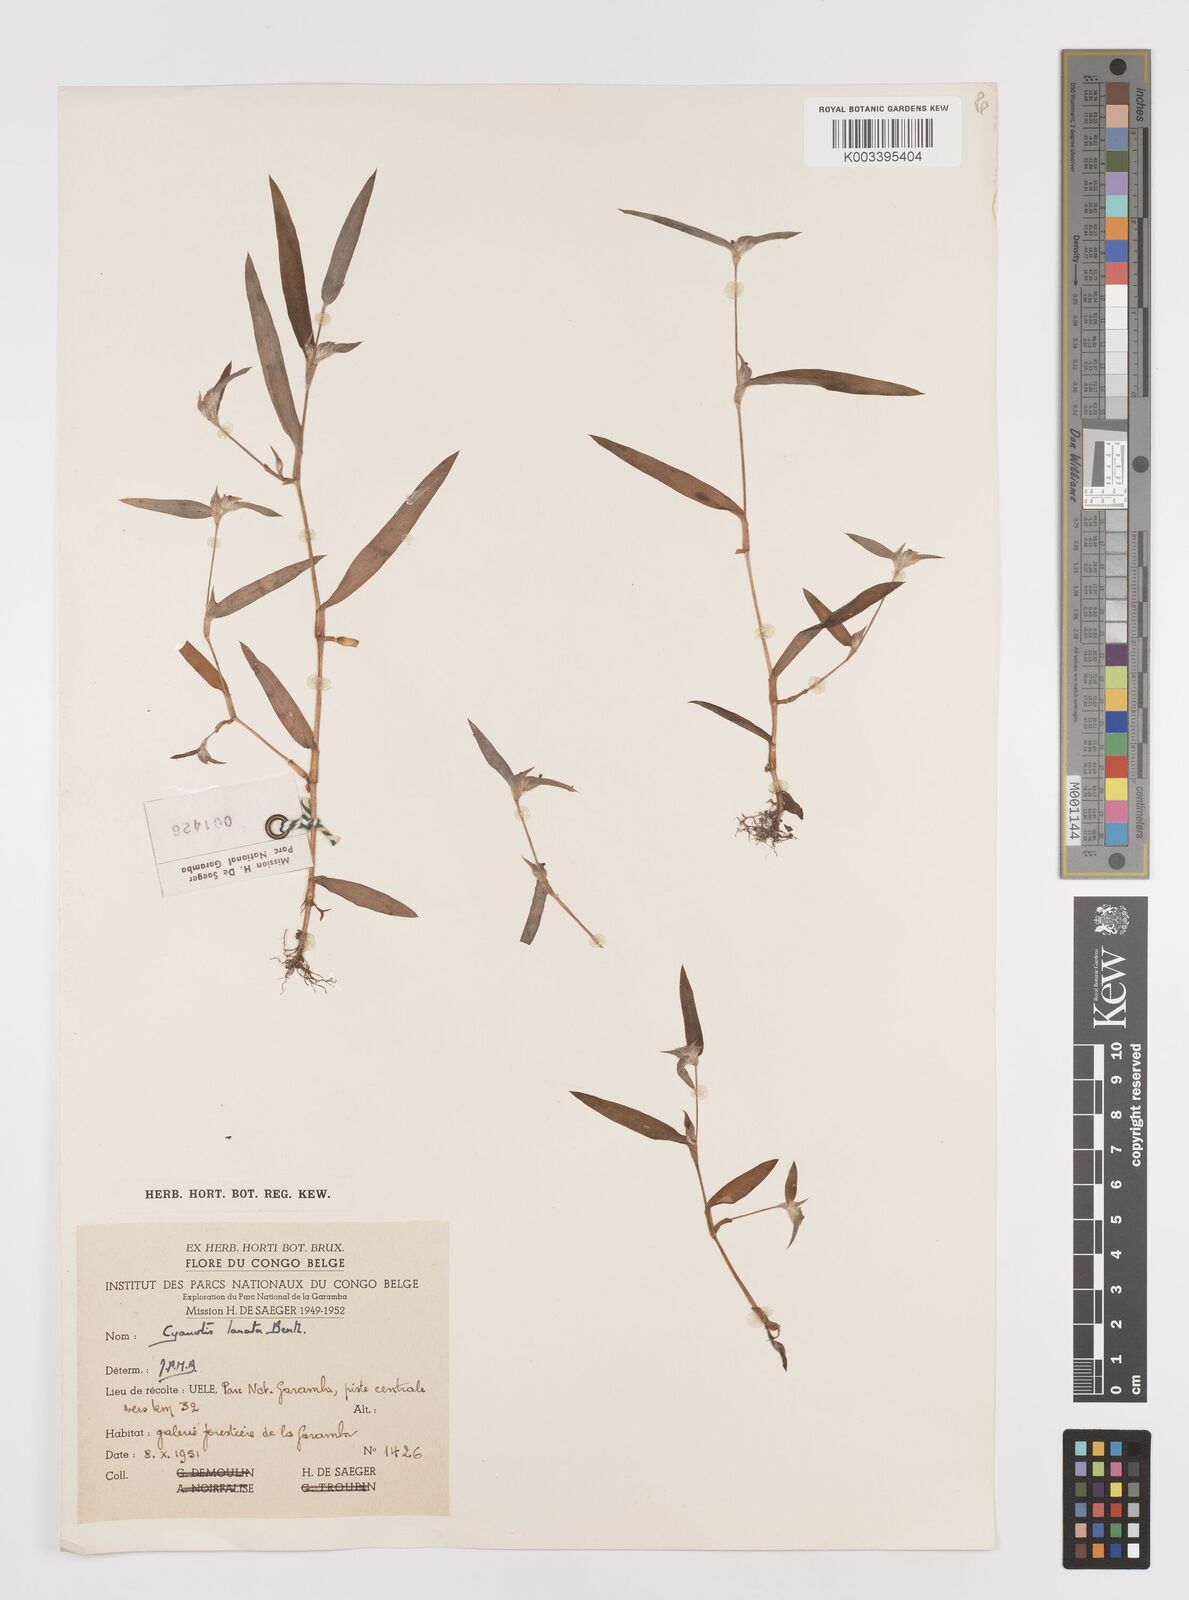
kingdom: Plantae
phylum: Tracheophyta
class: Liliopsida
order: Commelinales
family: Commelinaceae
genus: Cyanotis
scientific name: Cyanotis lanata
